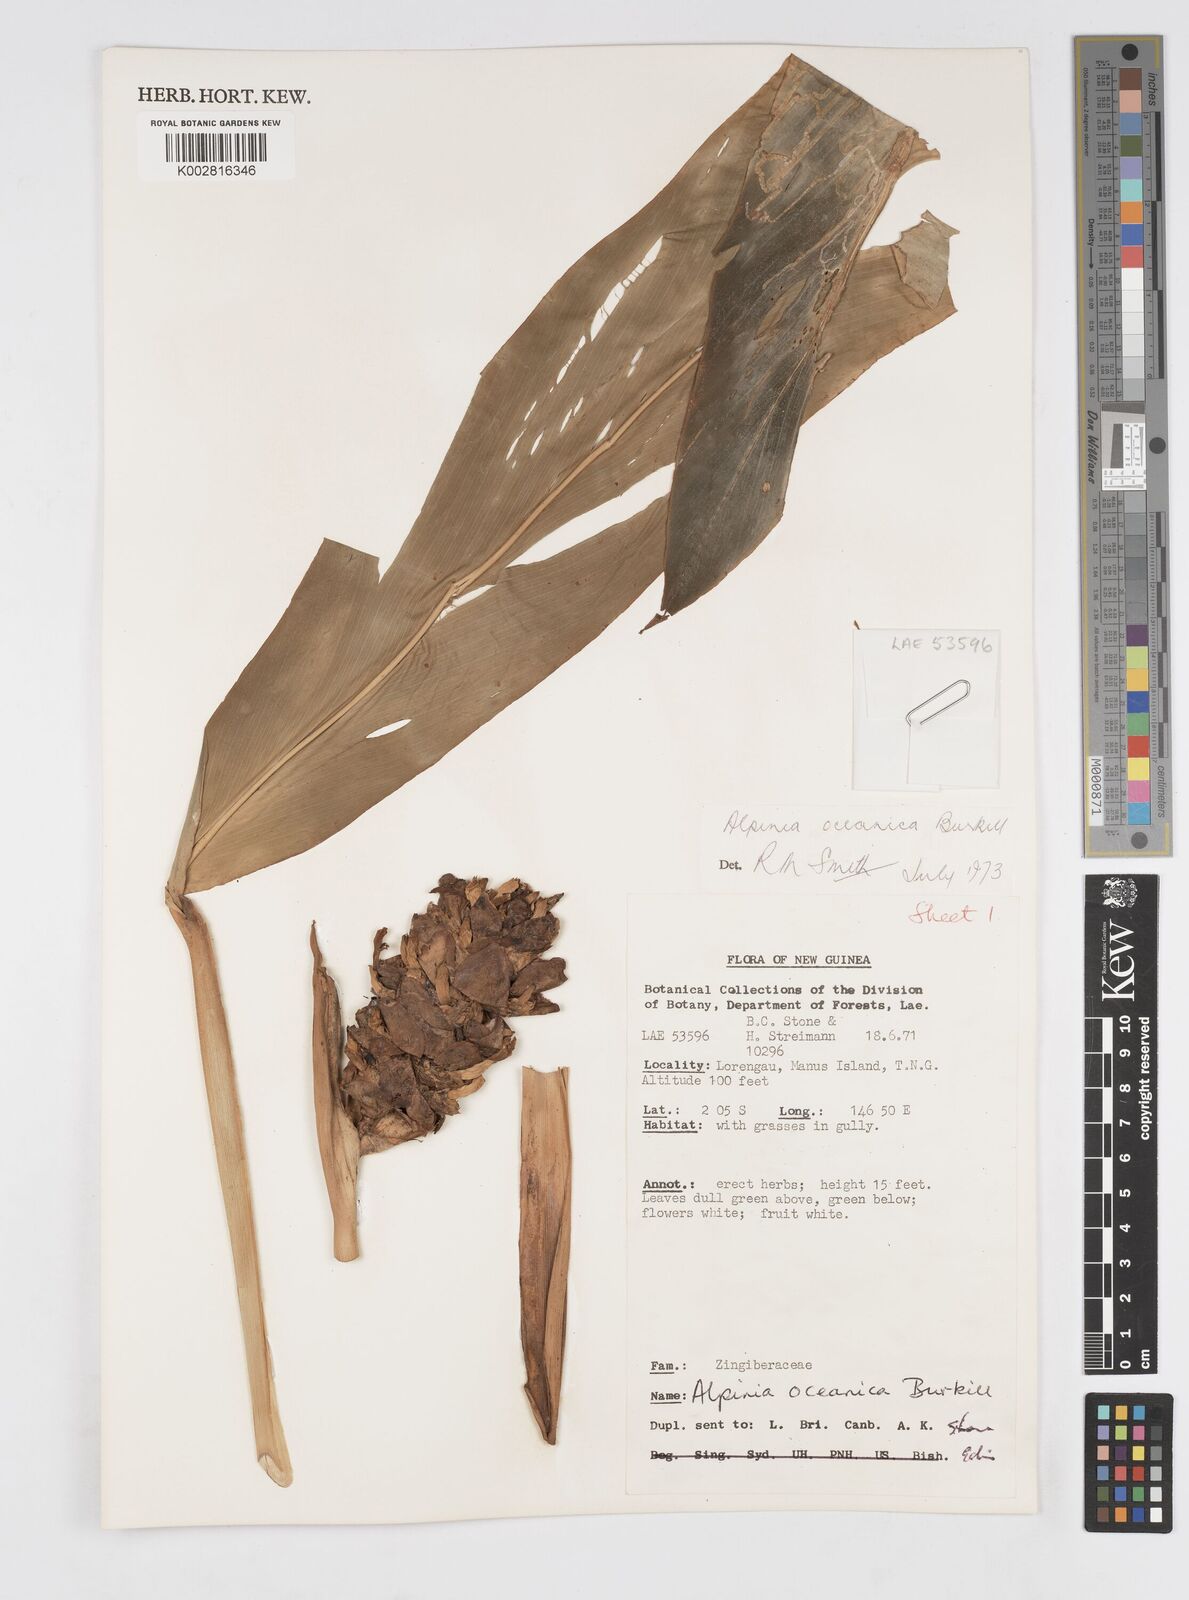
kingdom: Plantae
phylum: Tracheophyta
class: Liliopsida
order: Zingiberales
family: Zingiberaceae
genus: Alpinia
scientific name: Alpinia oceanica
